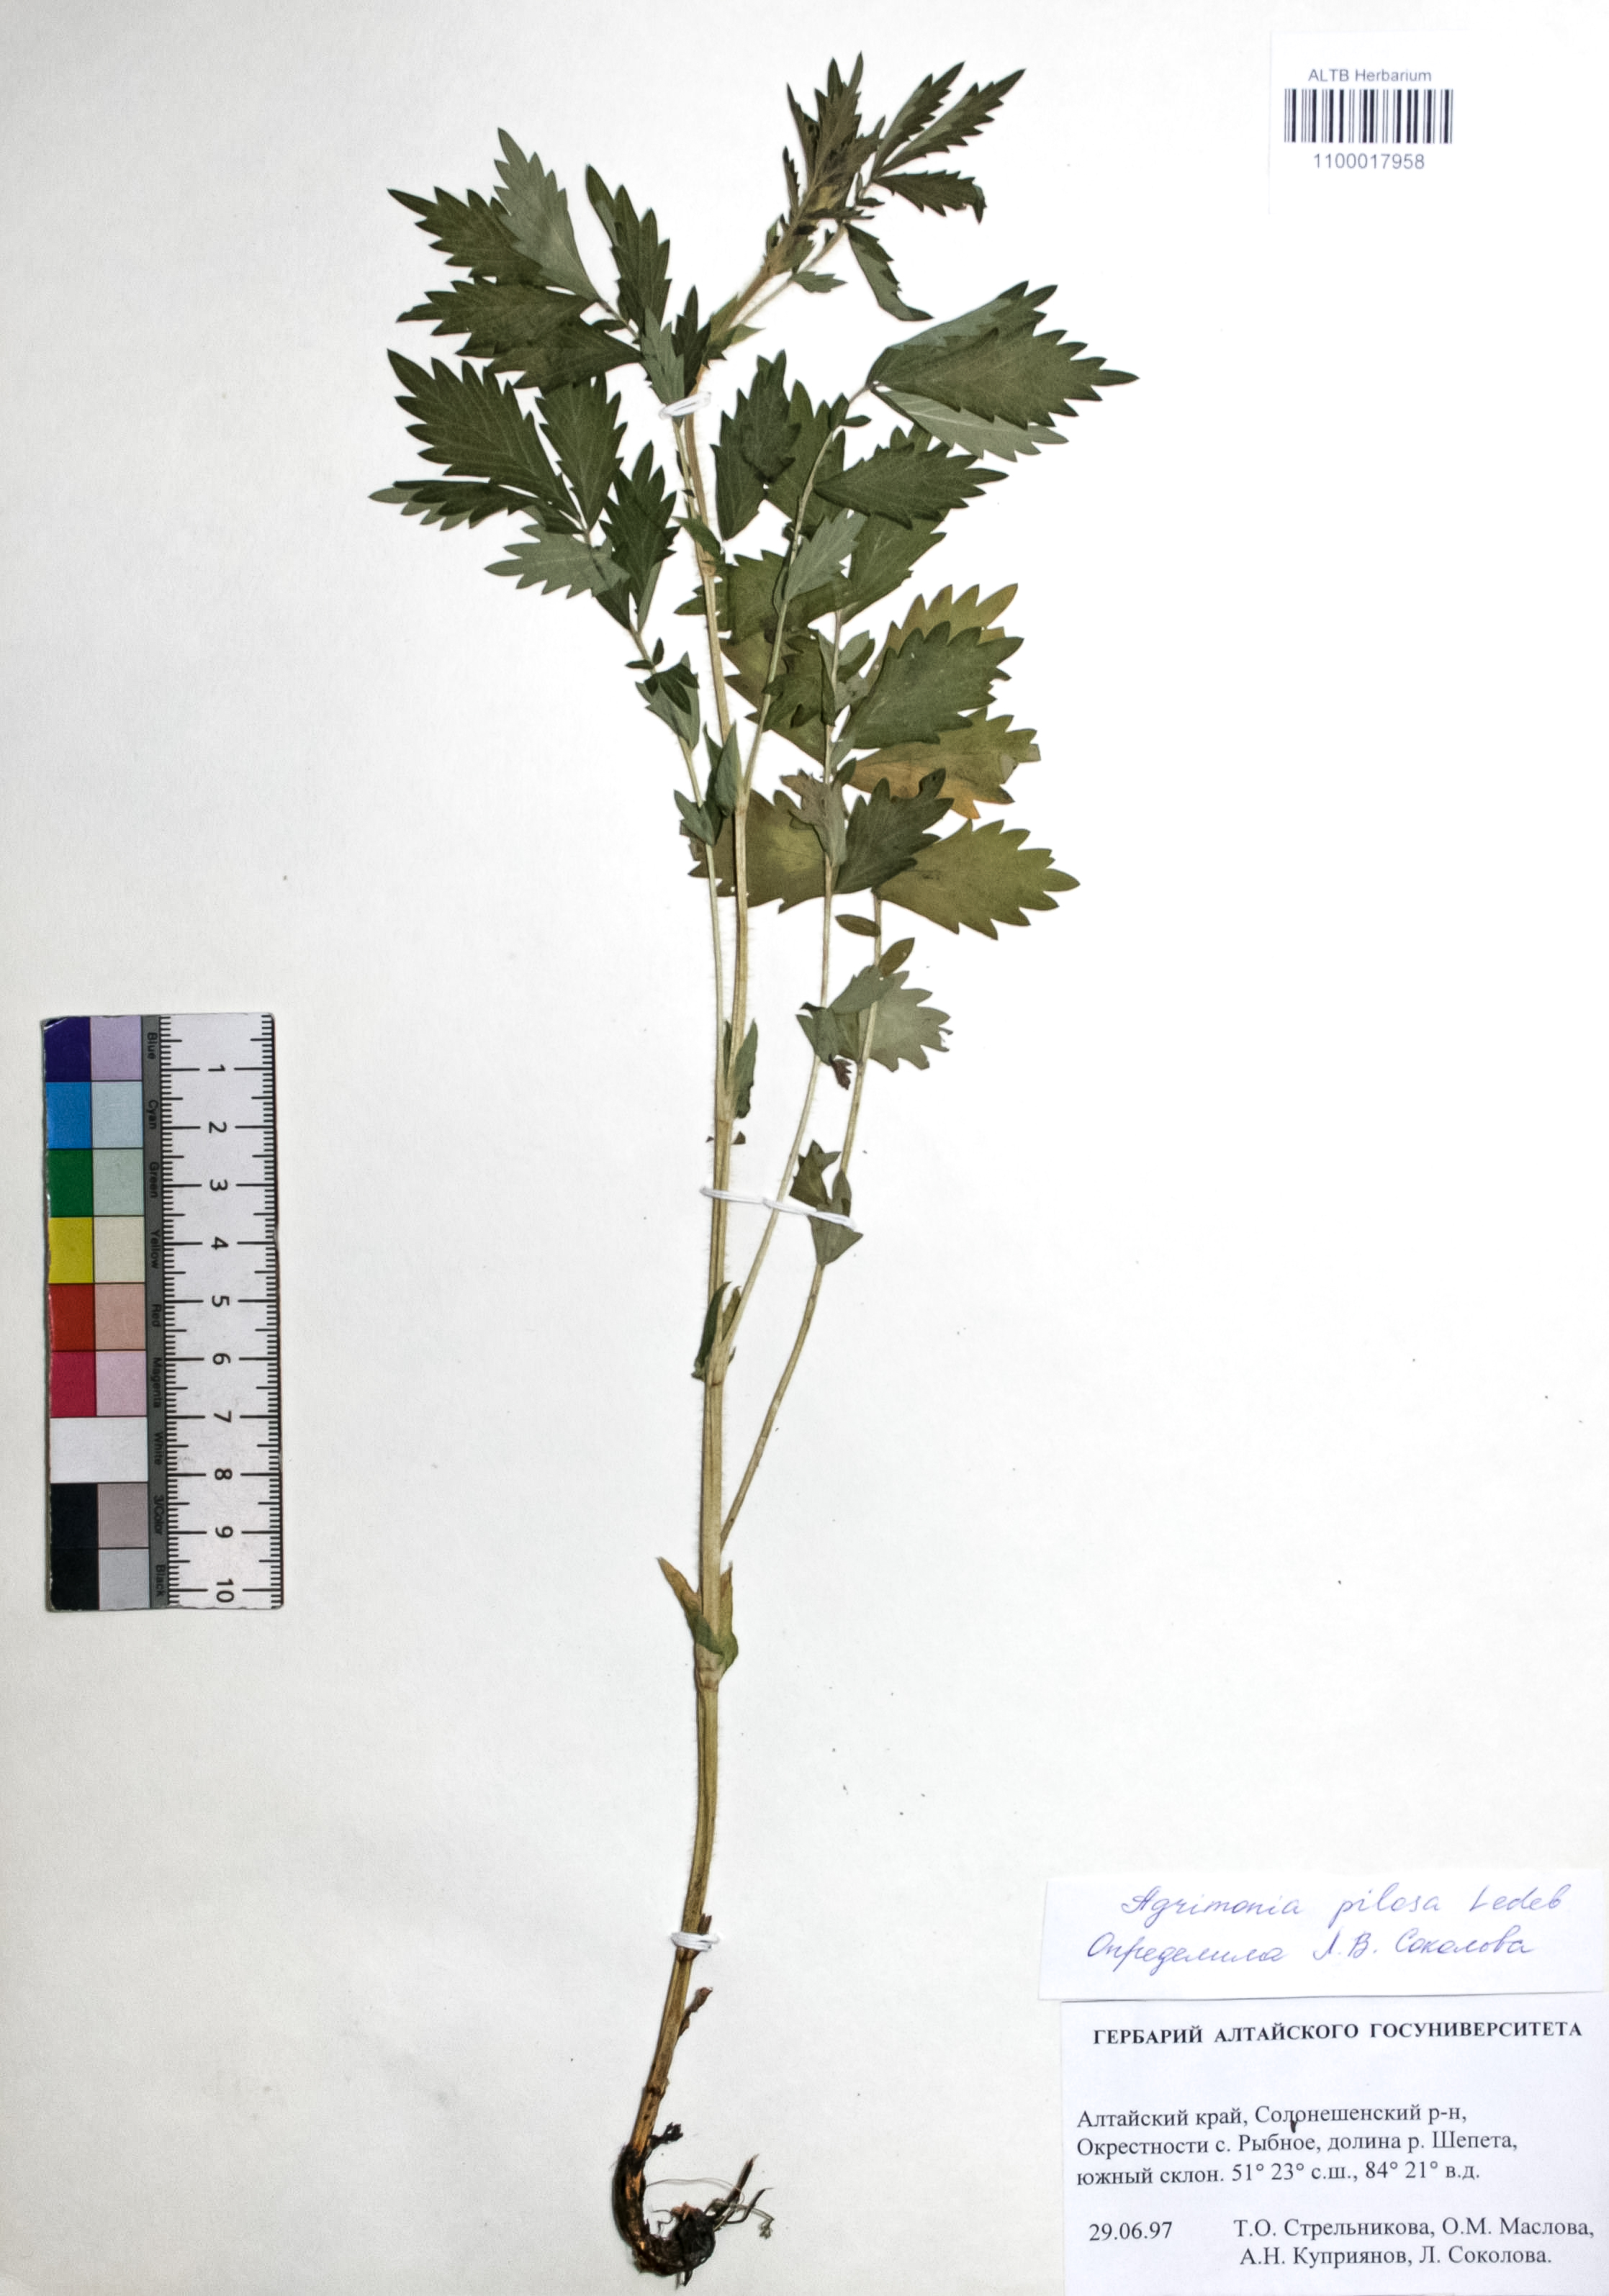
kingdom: Plantae
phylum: Tracheophyta
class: Magnoliopsida
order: Rosales
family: Rosaceae
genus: Agrimonia
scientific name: Agrimonia pilosa
